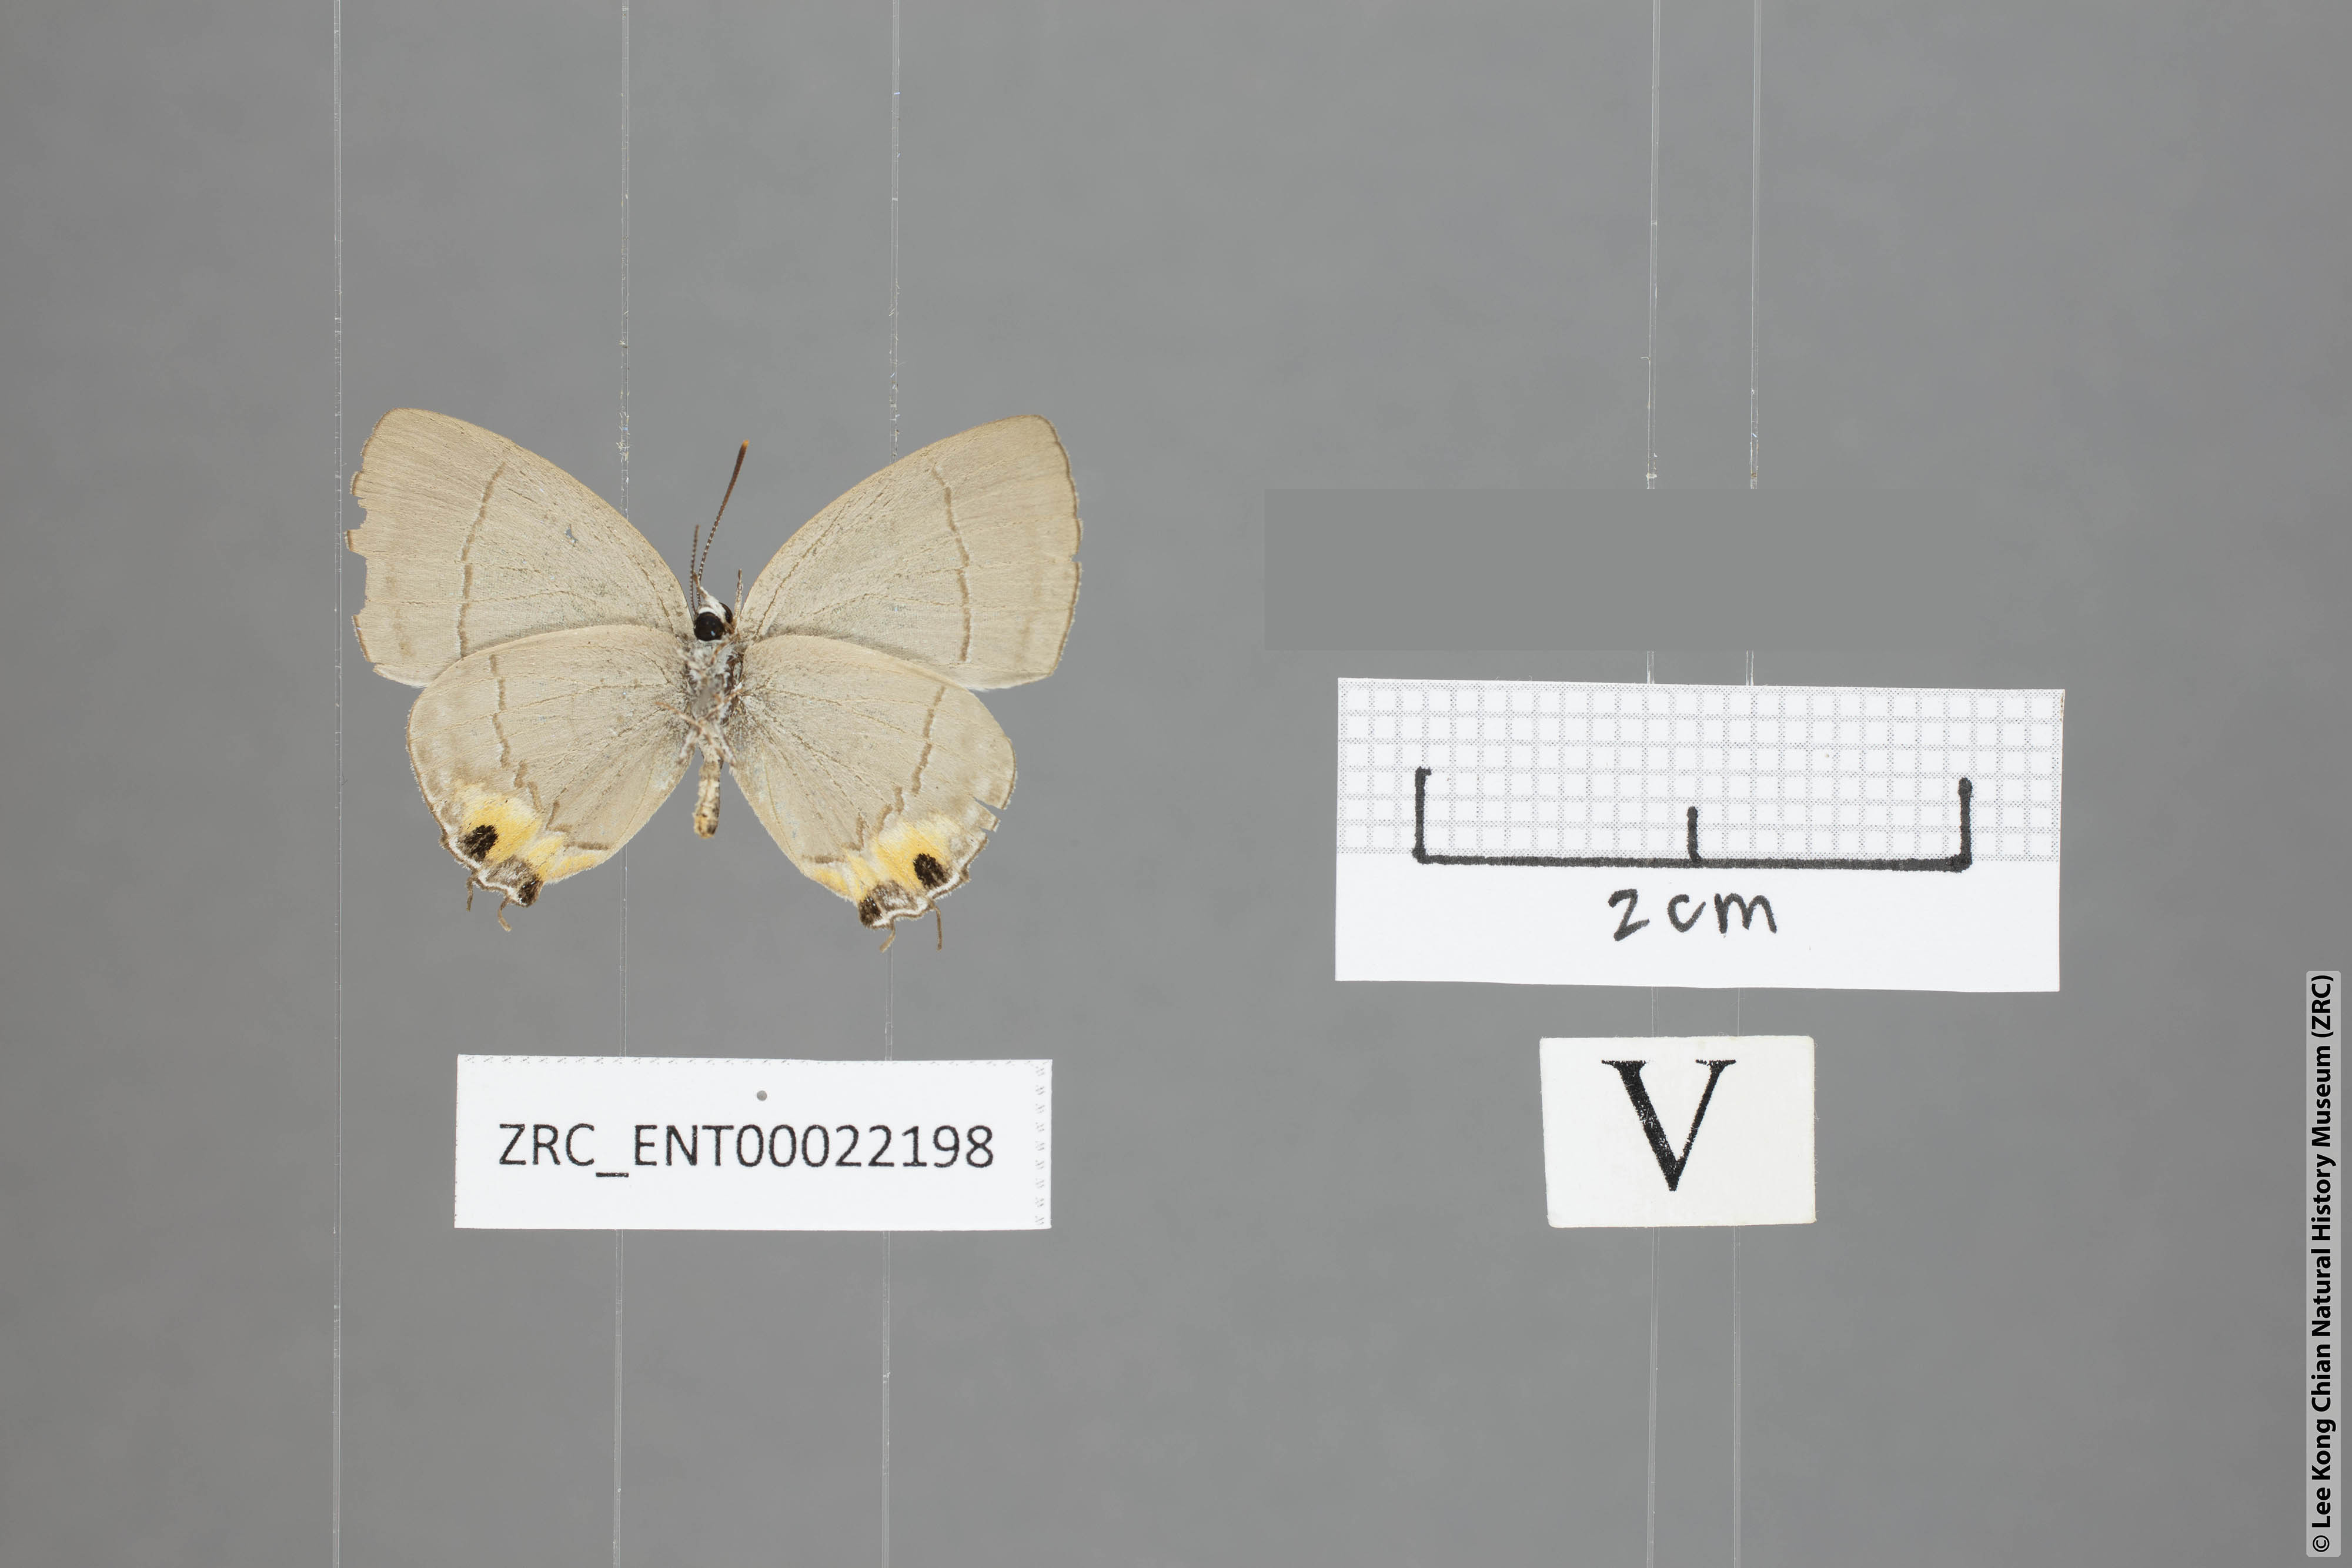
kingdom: Animalia
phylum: Arthropoda
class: Insecta
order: Lepidoptera
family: Lycaenidae
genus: Tajuria
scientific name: Tajuria isaeus
